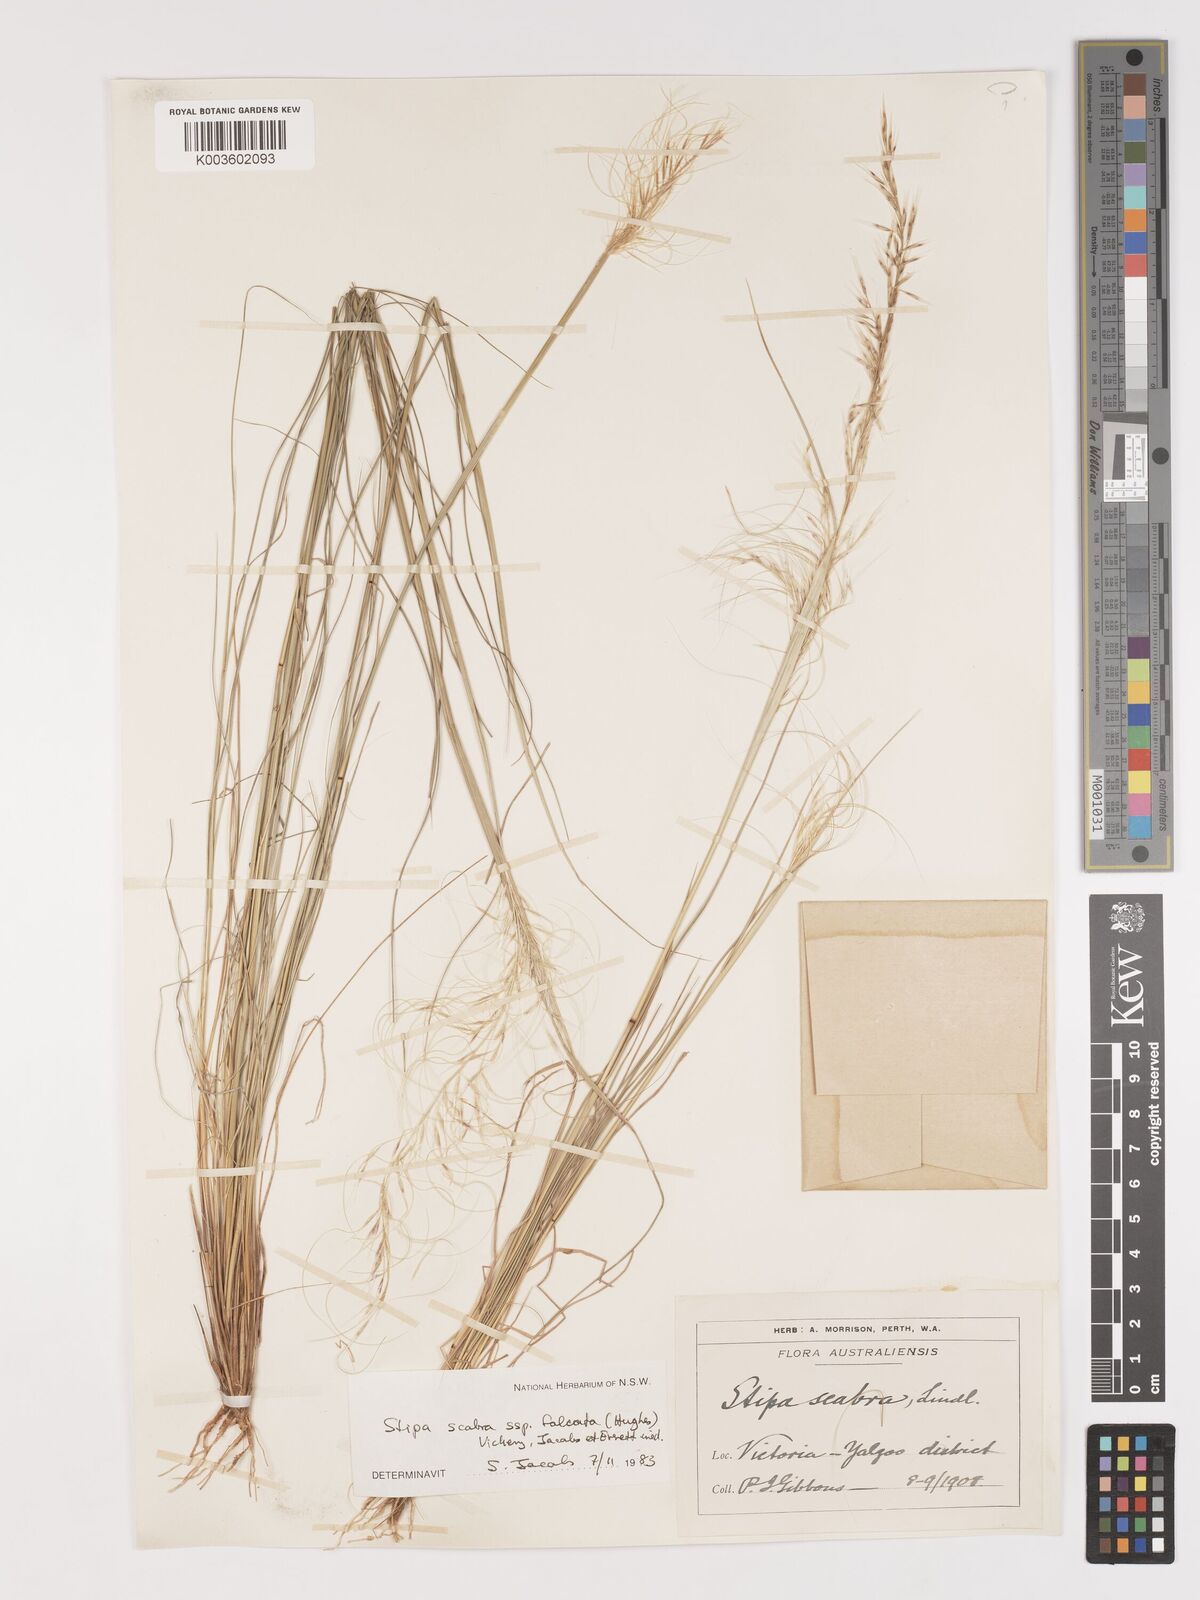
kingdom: Plantae
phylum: Tracheophyta
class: Liliopsida
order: Poales
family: Poaceae
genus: Austrostipa
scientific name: Austrostipa scabra
